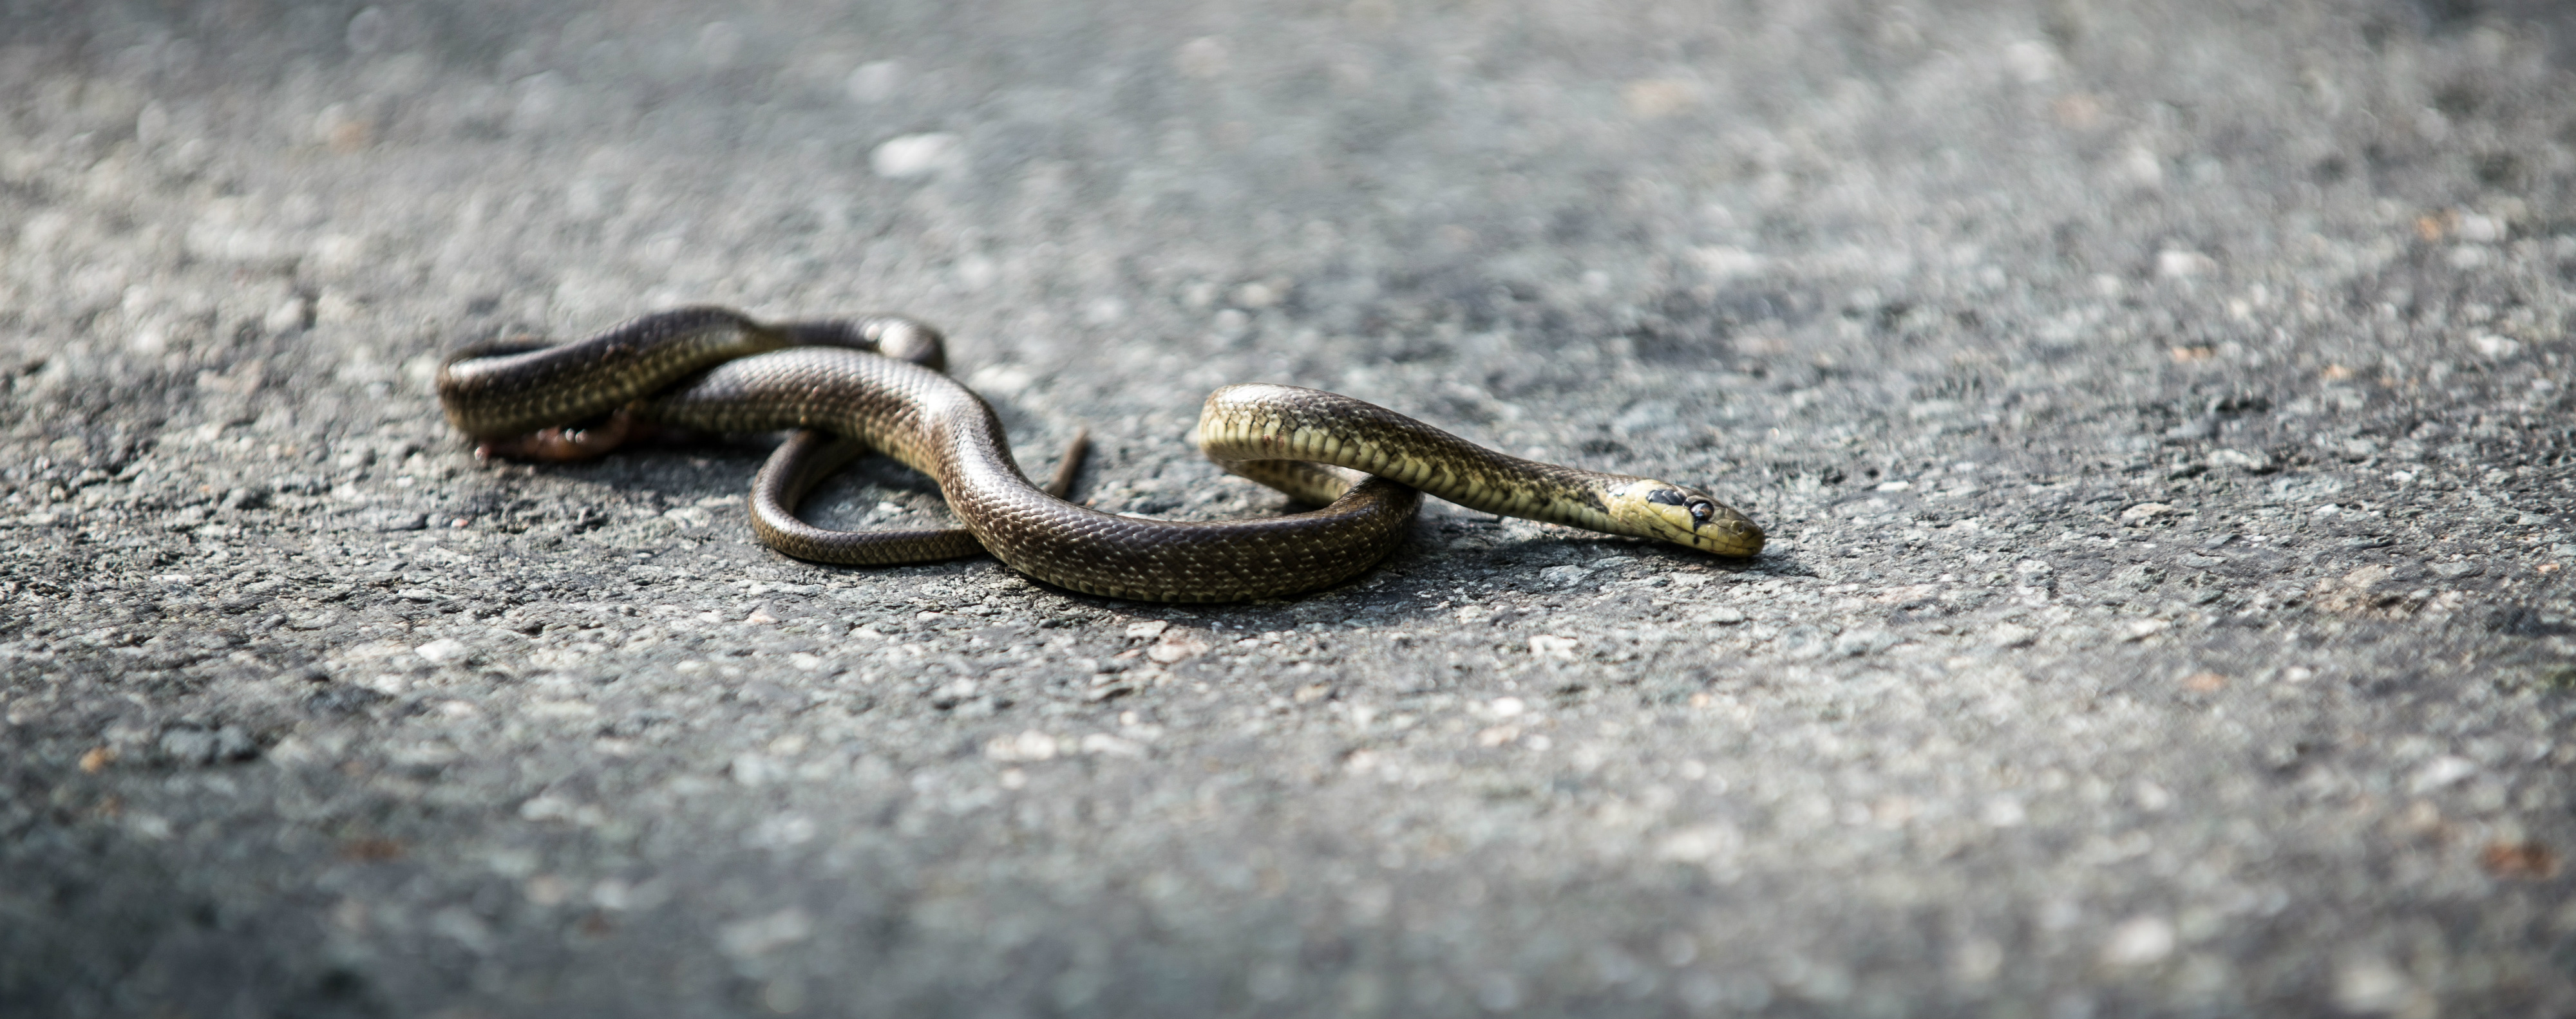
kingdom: Animalia
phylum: Chordata
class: Squamata
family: Colubridae
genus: Zamenis
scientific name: Zamenis longissimus
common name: Aesculapean snake
